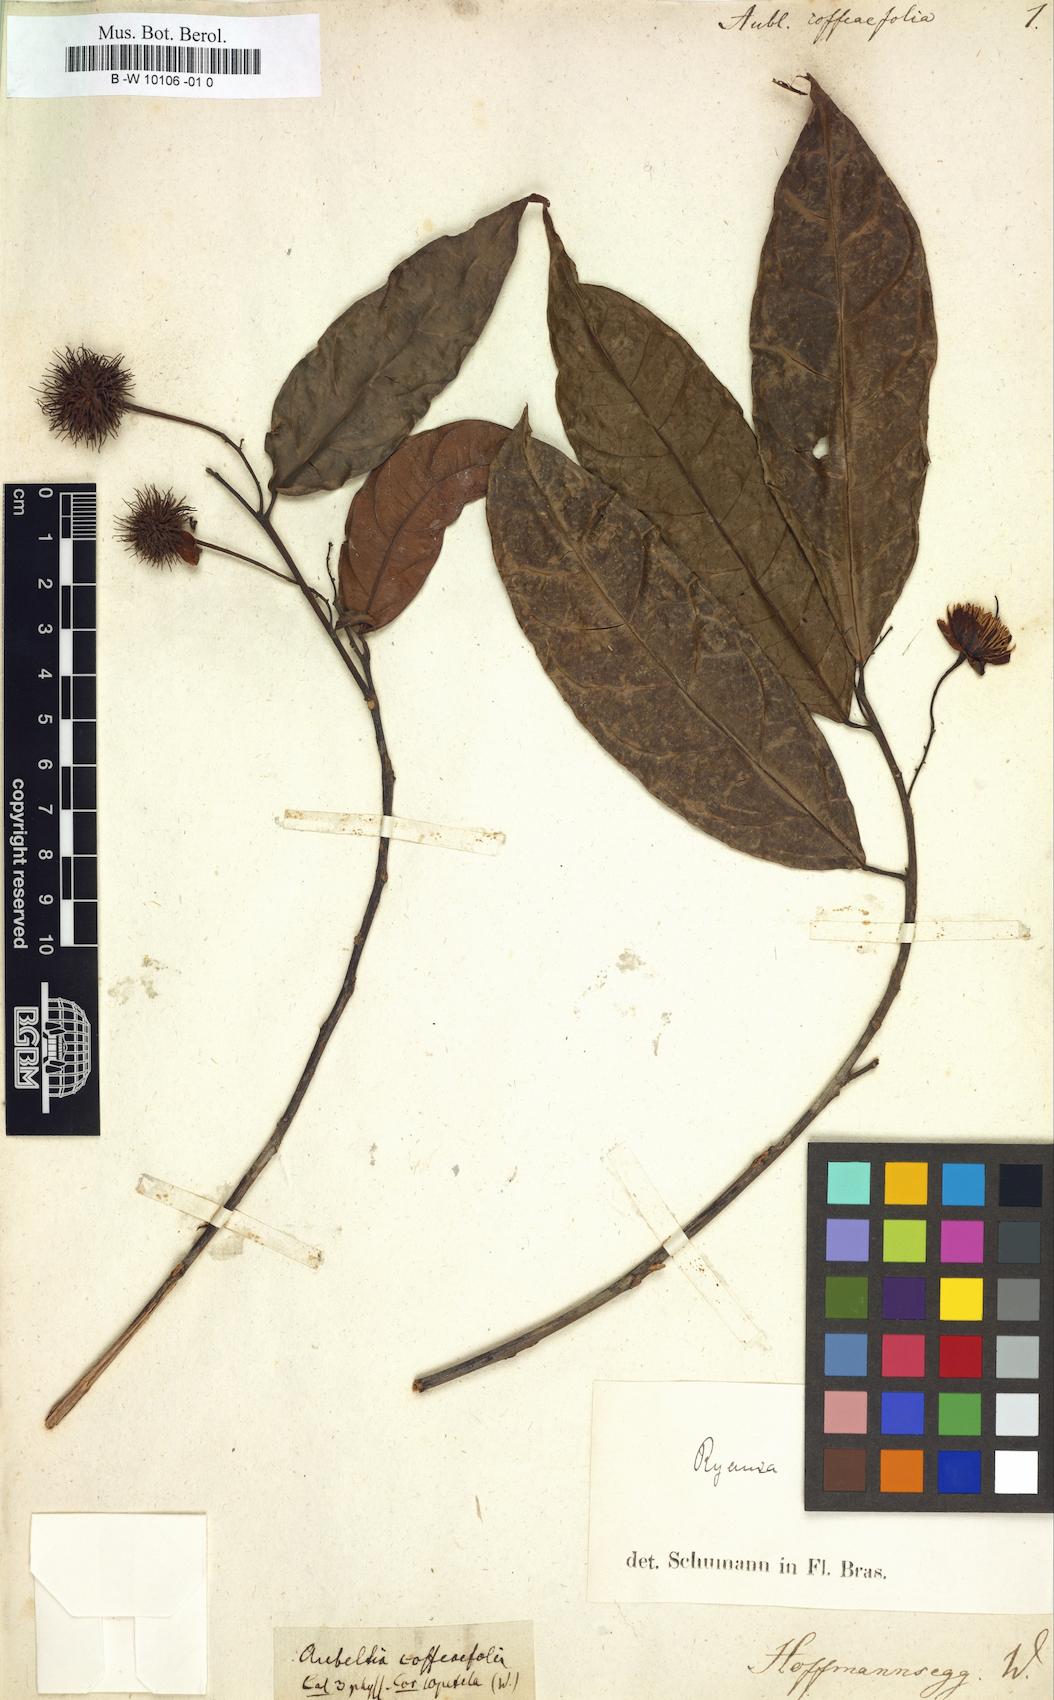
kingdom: Plantae
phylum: Tracheophyta
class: Magnoliopsida
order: Malvales
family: Malvaceae
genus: Apeiba
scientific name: Apeiba
